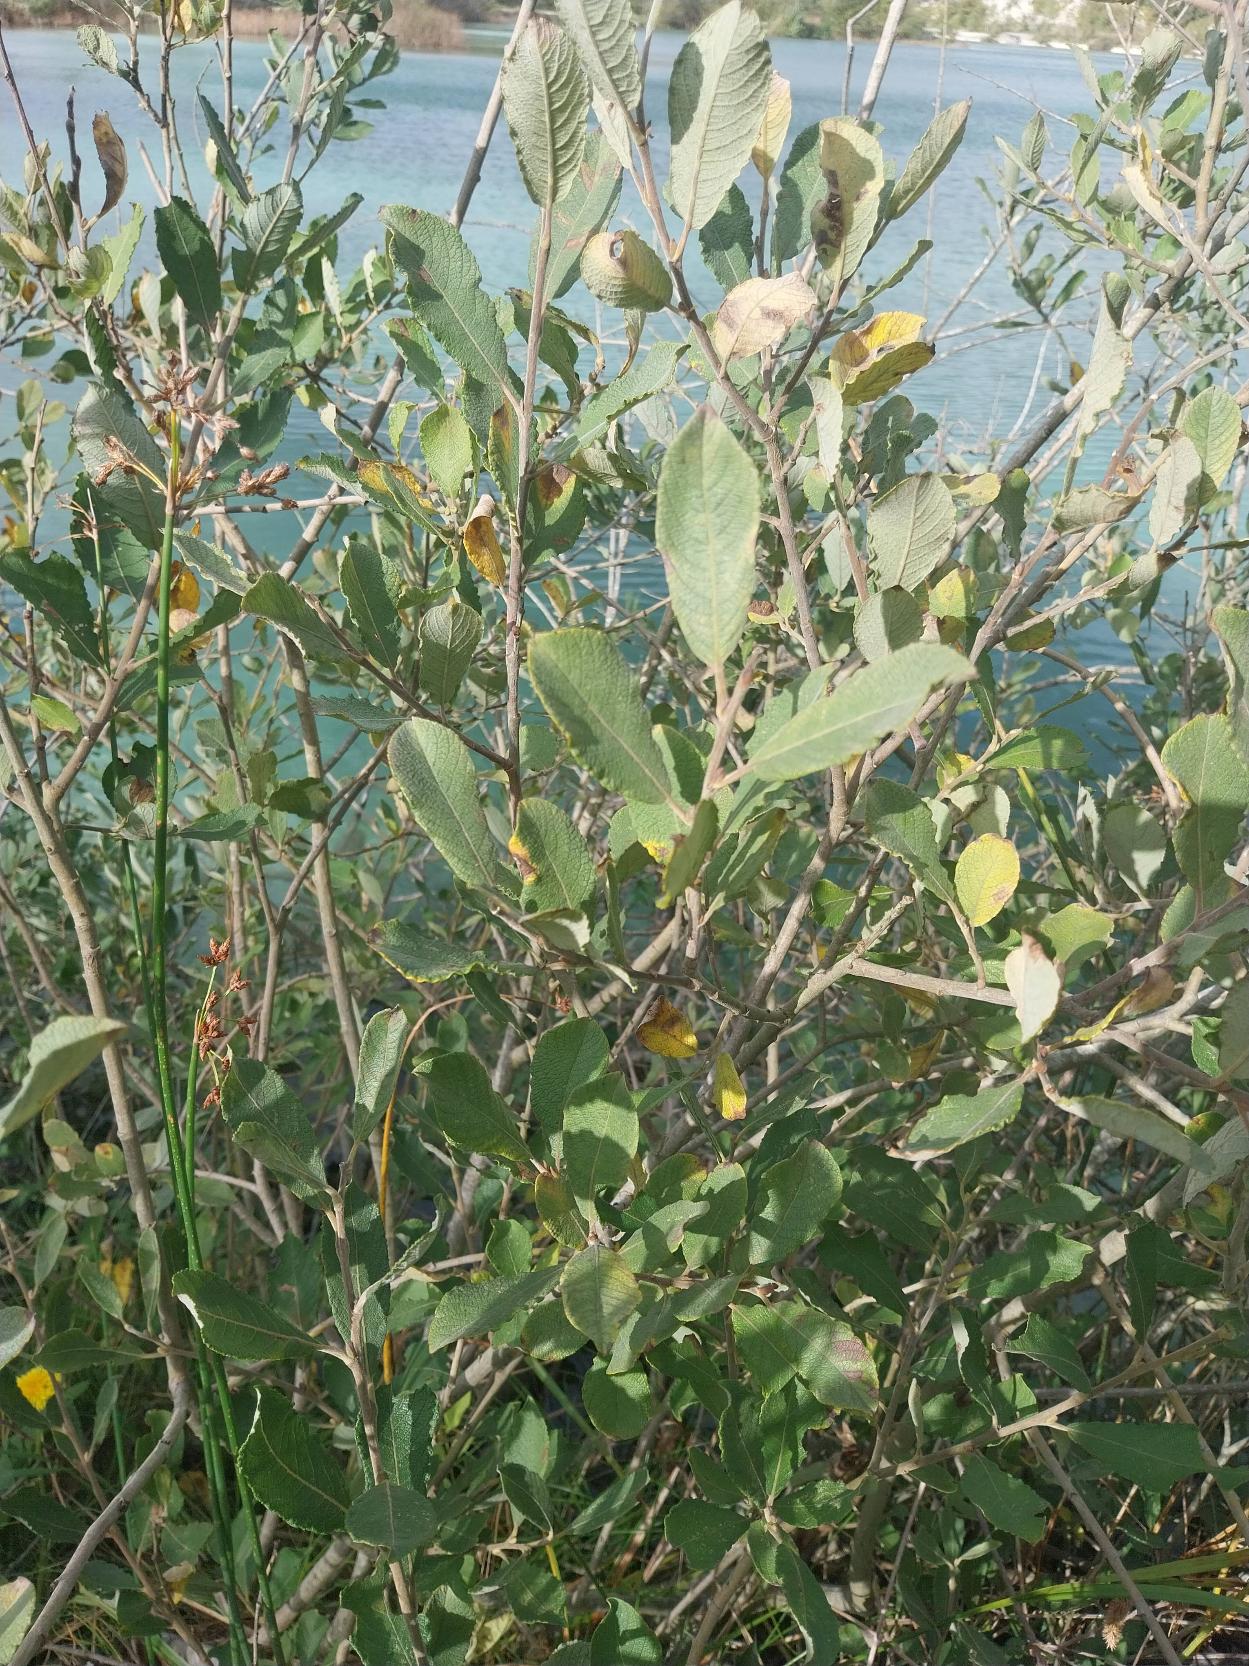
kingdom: Plantae
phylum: Tracheophyta
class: Magnoliopsida
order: Malpighiales
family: Salicaceae
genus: Salix
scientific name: Salix cinerea
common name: Grå-pil
